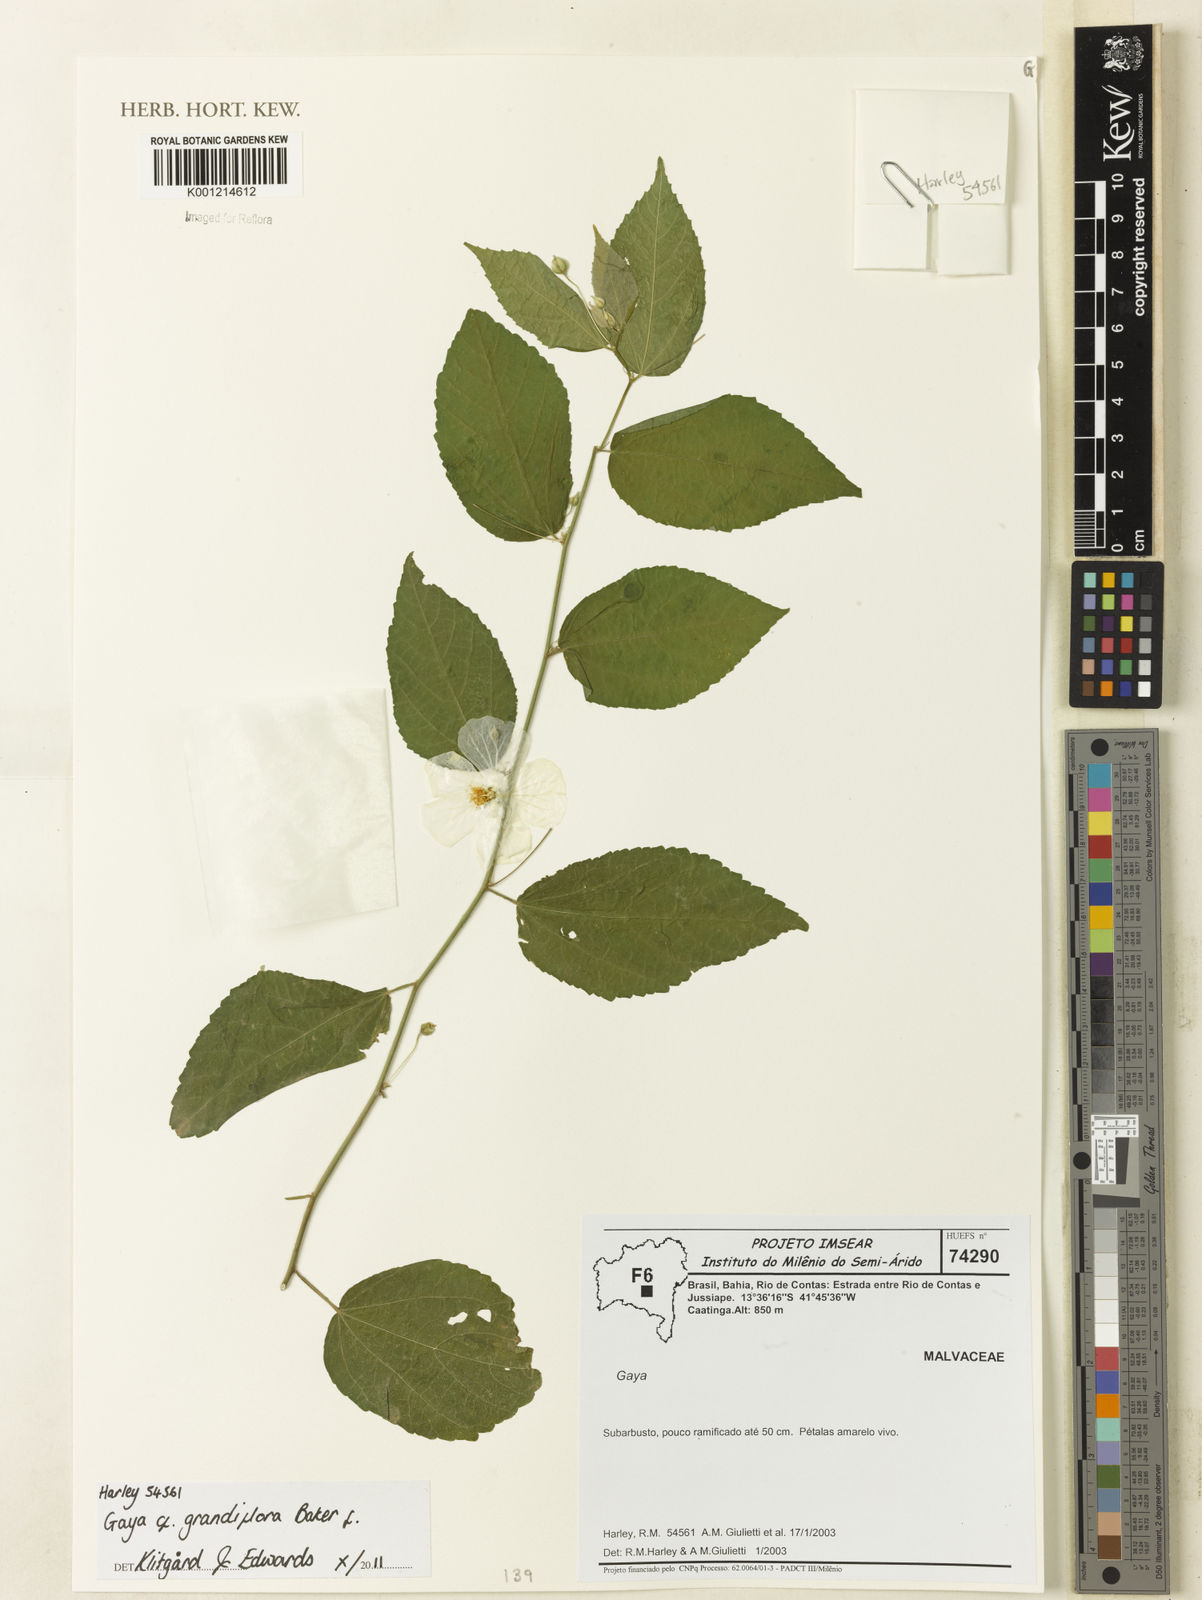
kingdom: Plantae
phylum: Tracheophyta
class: Magnoliopsida
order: Malvales
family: Malvaceae
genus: Gaya
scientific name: Gaya grandiflora
